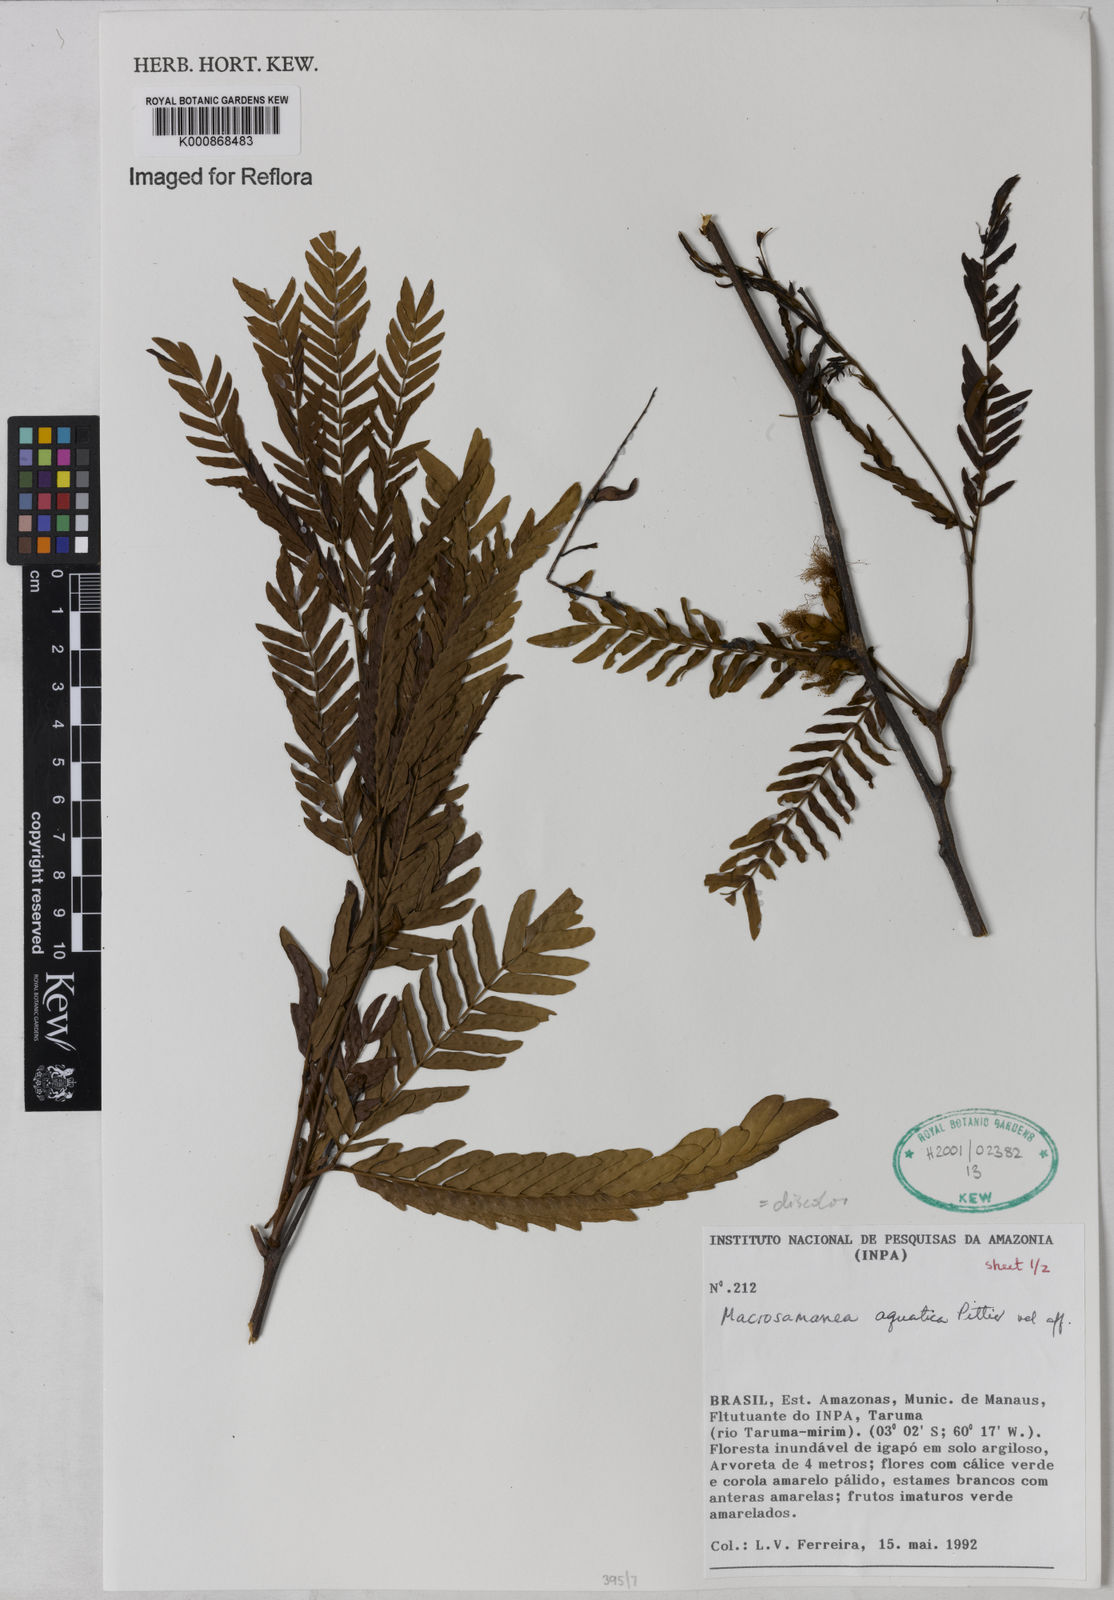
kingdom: Plantae
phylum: Tracheophyta
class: Magnoliopsida
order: Fabales
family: Fabaceae
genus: Macrosamanea
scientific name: Macrosamanea
